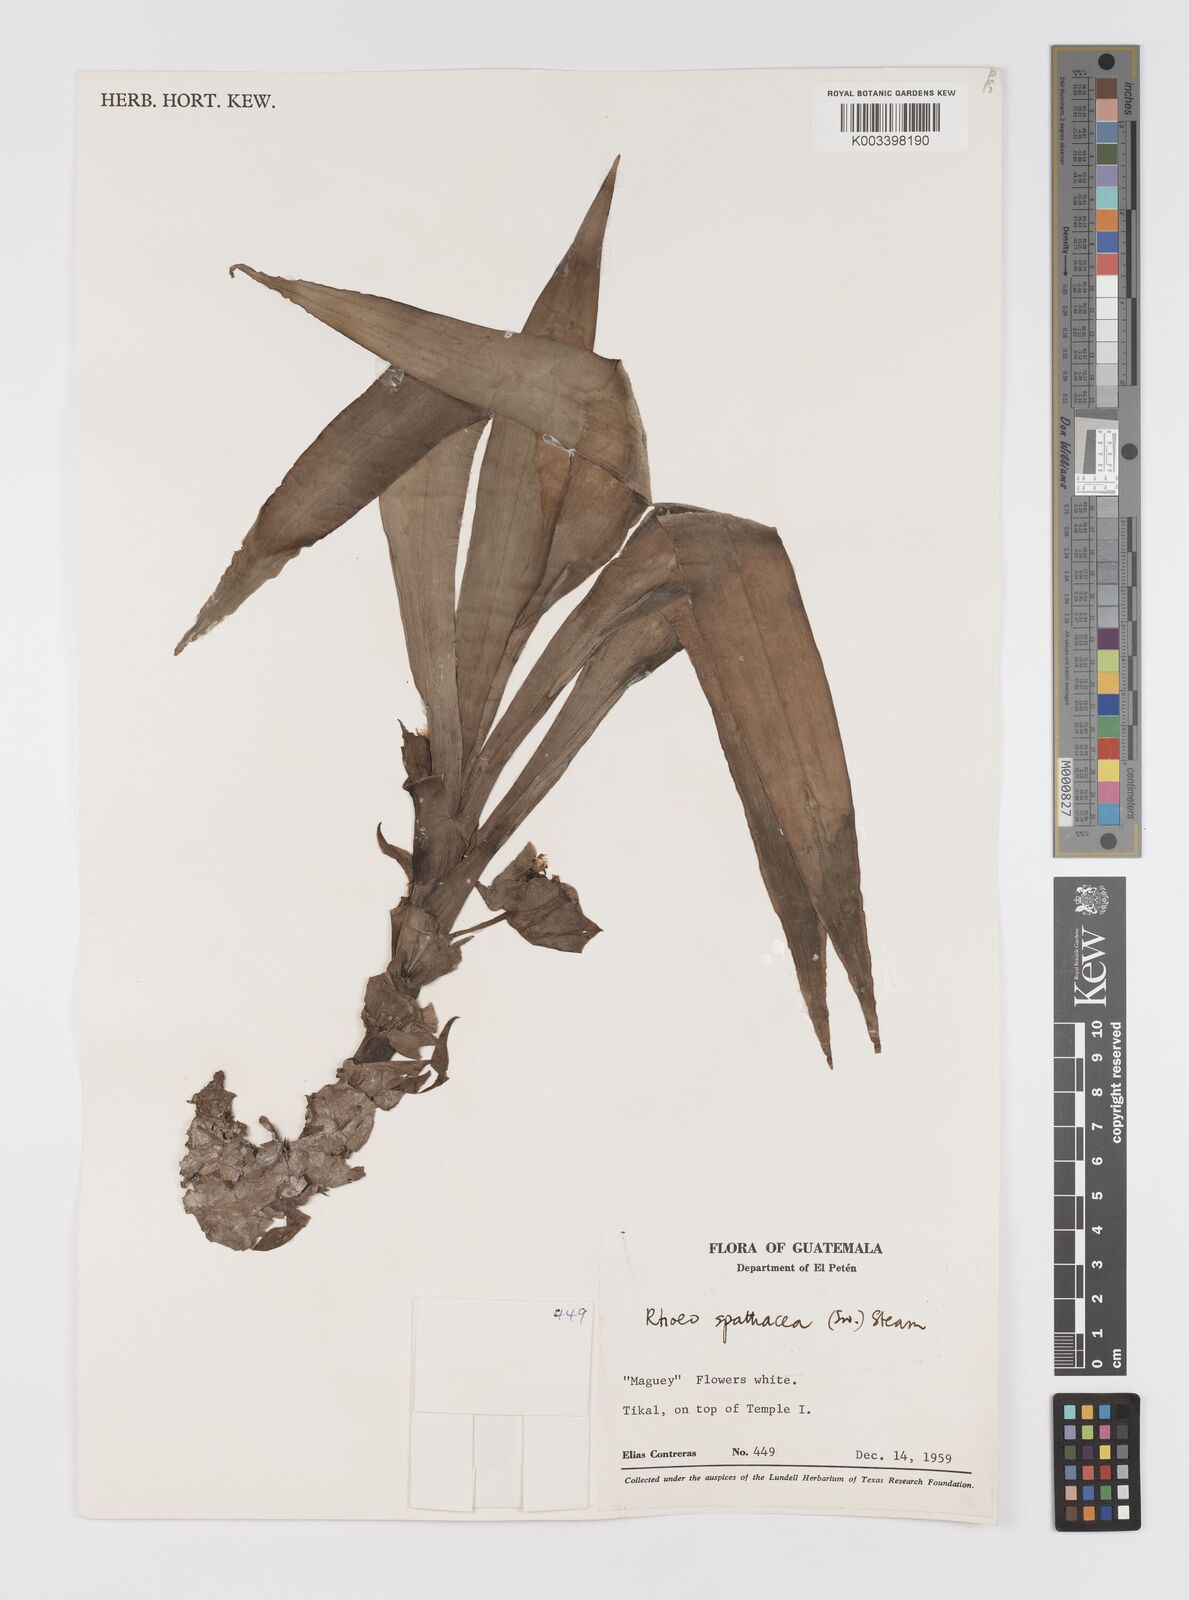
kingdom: Plantae
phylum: Tracheophyta
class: Liliopsida
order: Commelinales
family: Commelinaceae
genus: Tradescantia
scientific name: Tradescantia spathacea
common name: Boatlily
